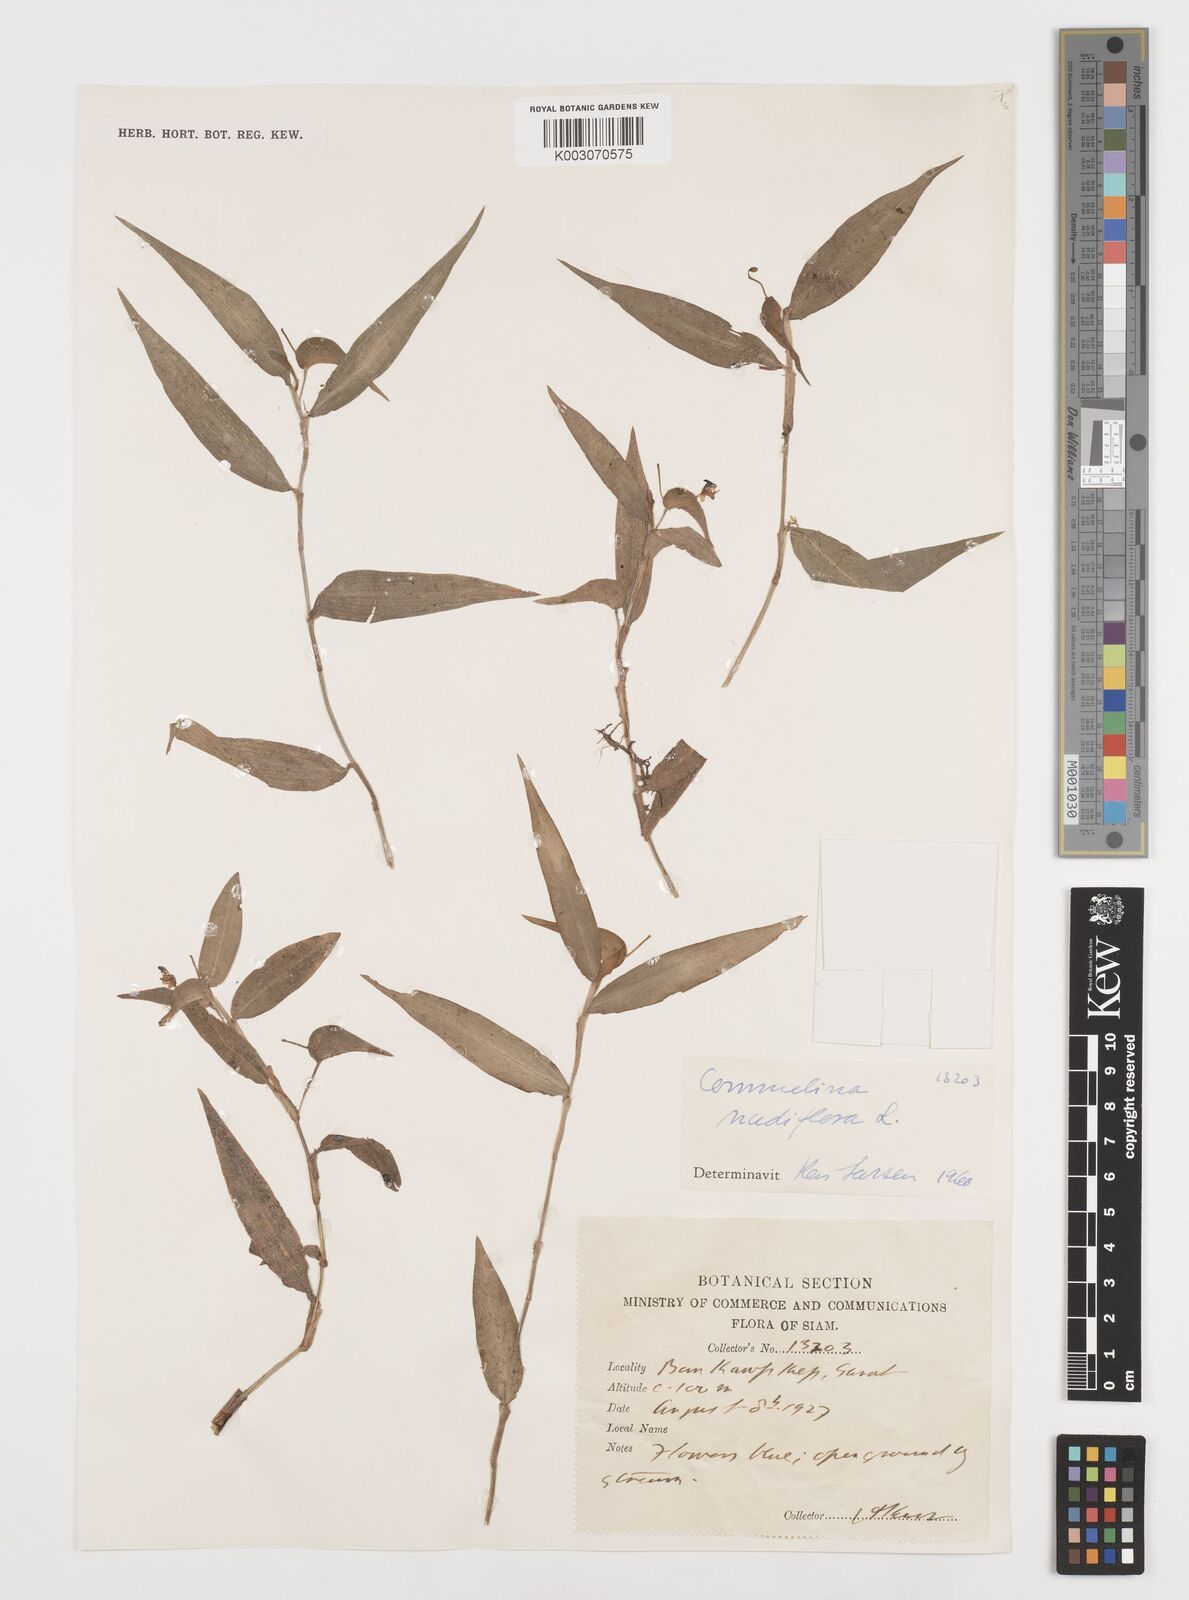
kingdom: Plantae
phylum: Tracheophyta
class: Liliopsida
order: Commelinales
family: Commelinaceae
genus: Commelina
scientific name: Commelina clavata
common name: Willow leaved dayflower
